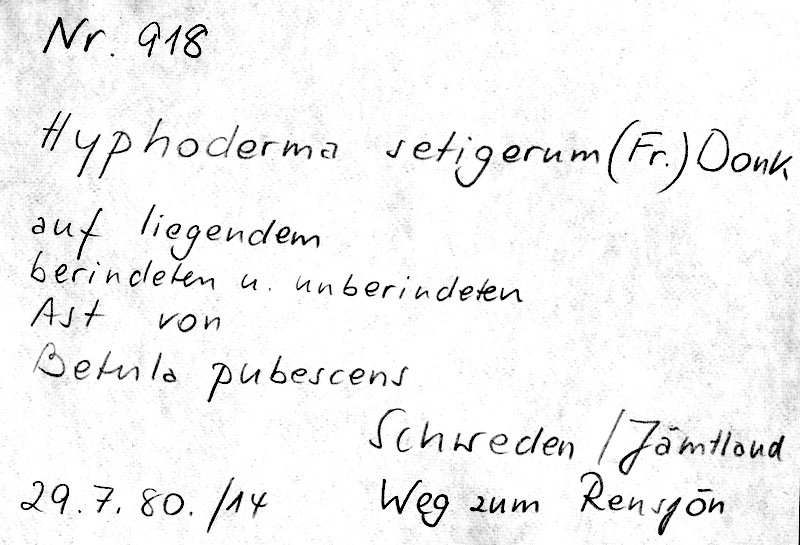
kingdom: Plantae
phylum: Tracheophyta
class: Magnoliopsida
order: Fagales
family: Betulaceae
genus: Betula
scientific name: Betula pubescens
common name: Downy birch
